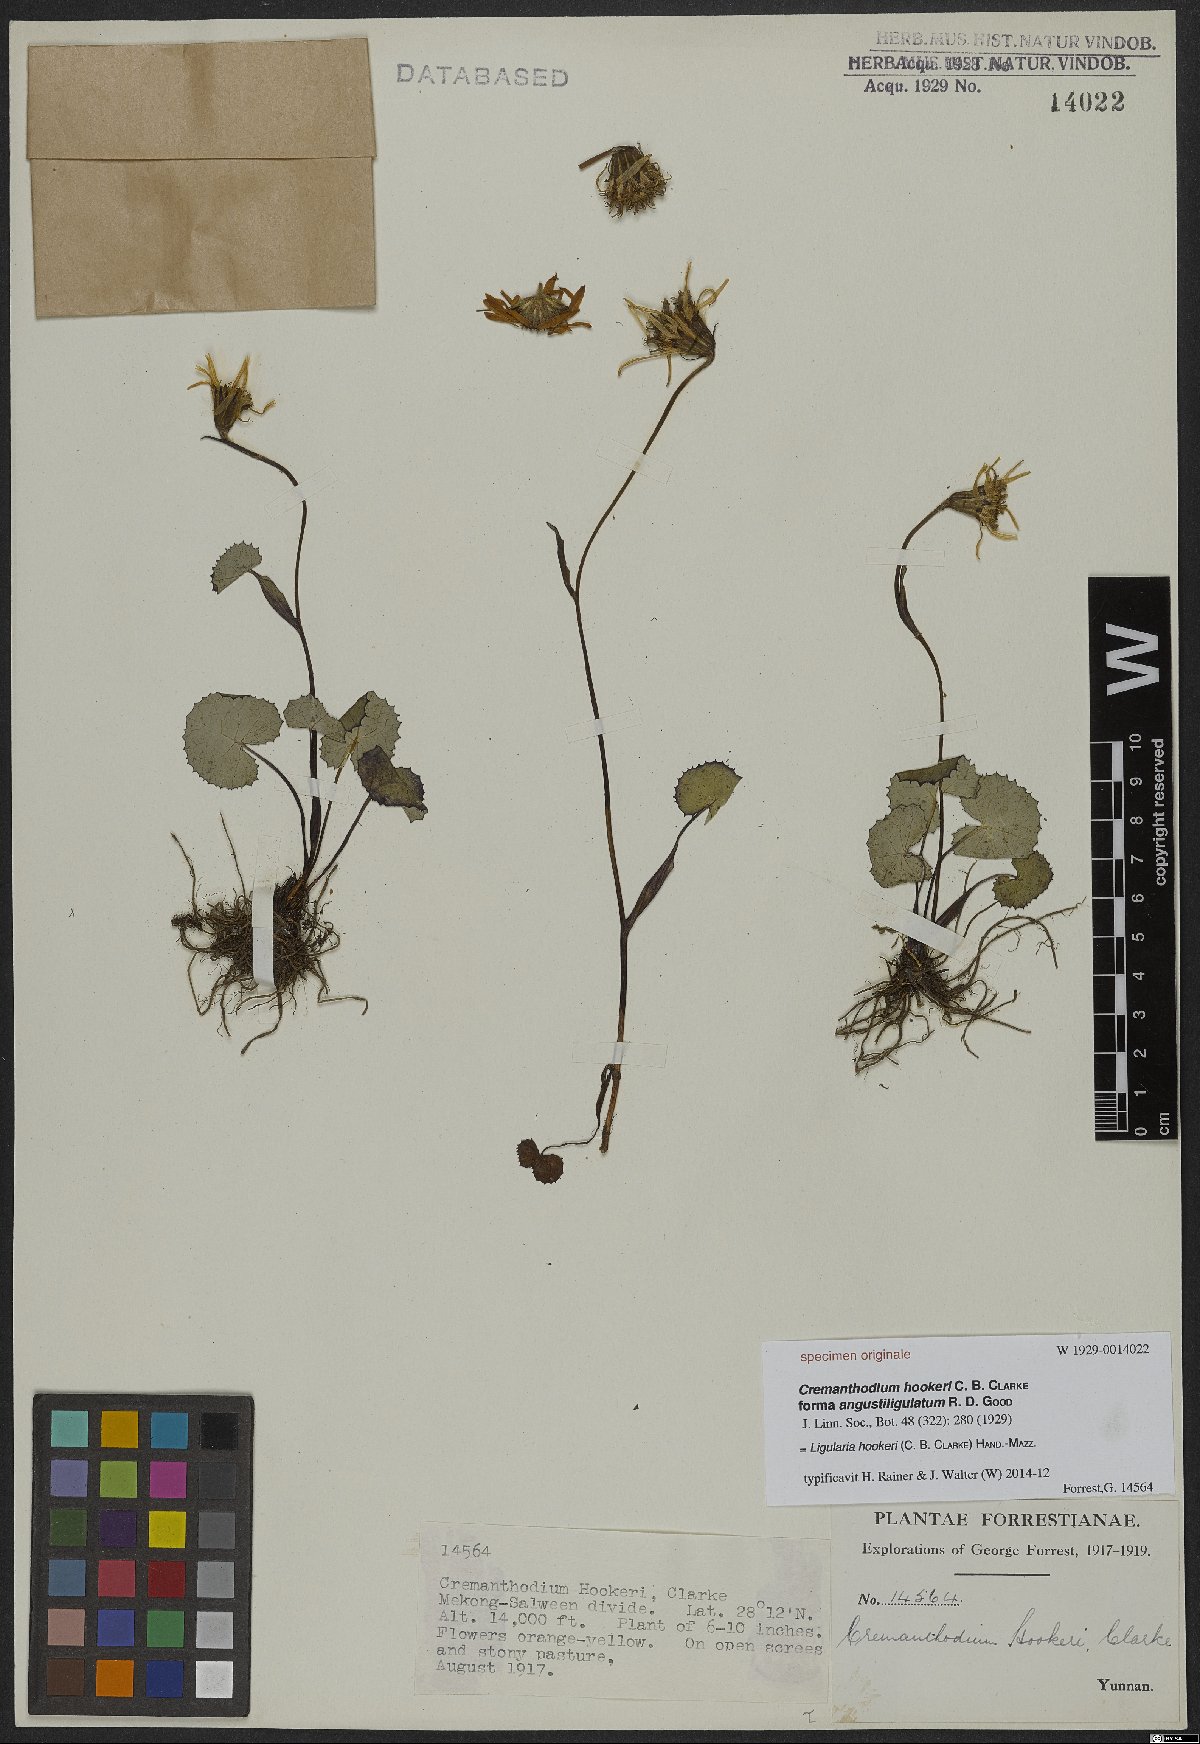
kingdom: Plantae
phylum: Tracheophyta
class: Magnoliopsida
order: Asterales
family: Asteraceae
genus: Ligularia
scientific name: Ligularia hookeri
